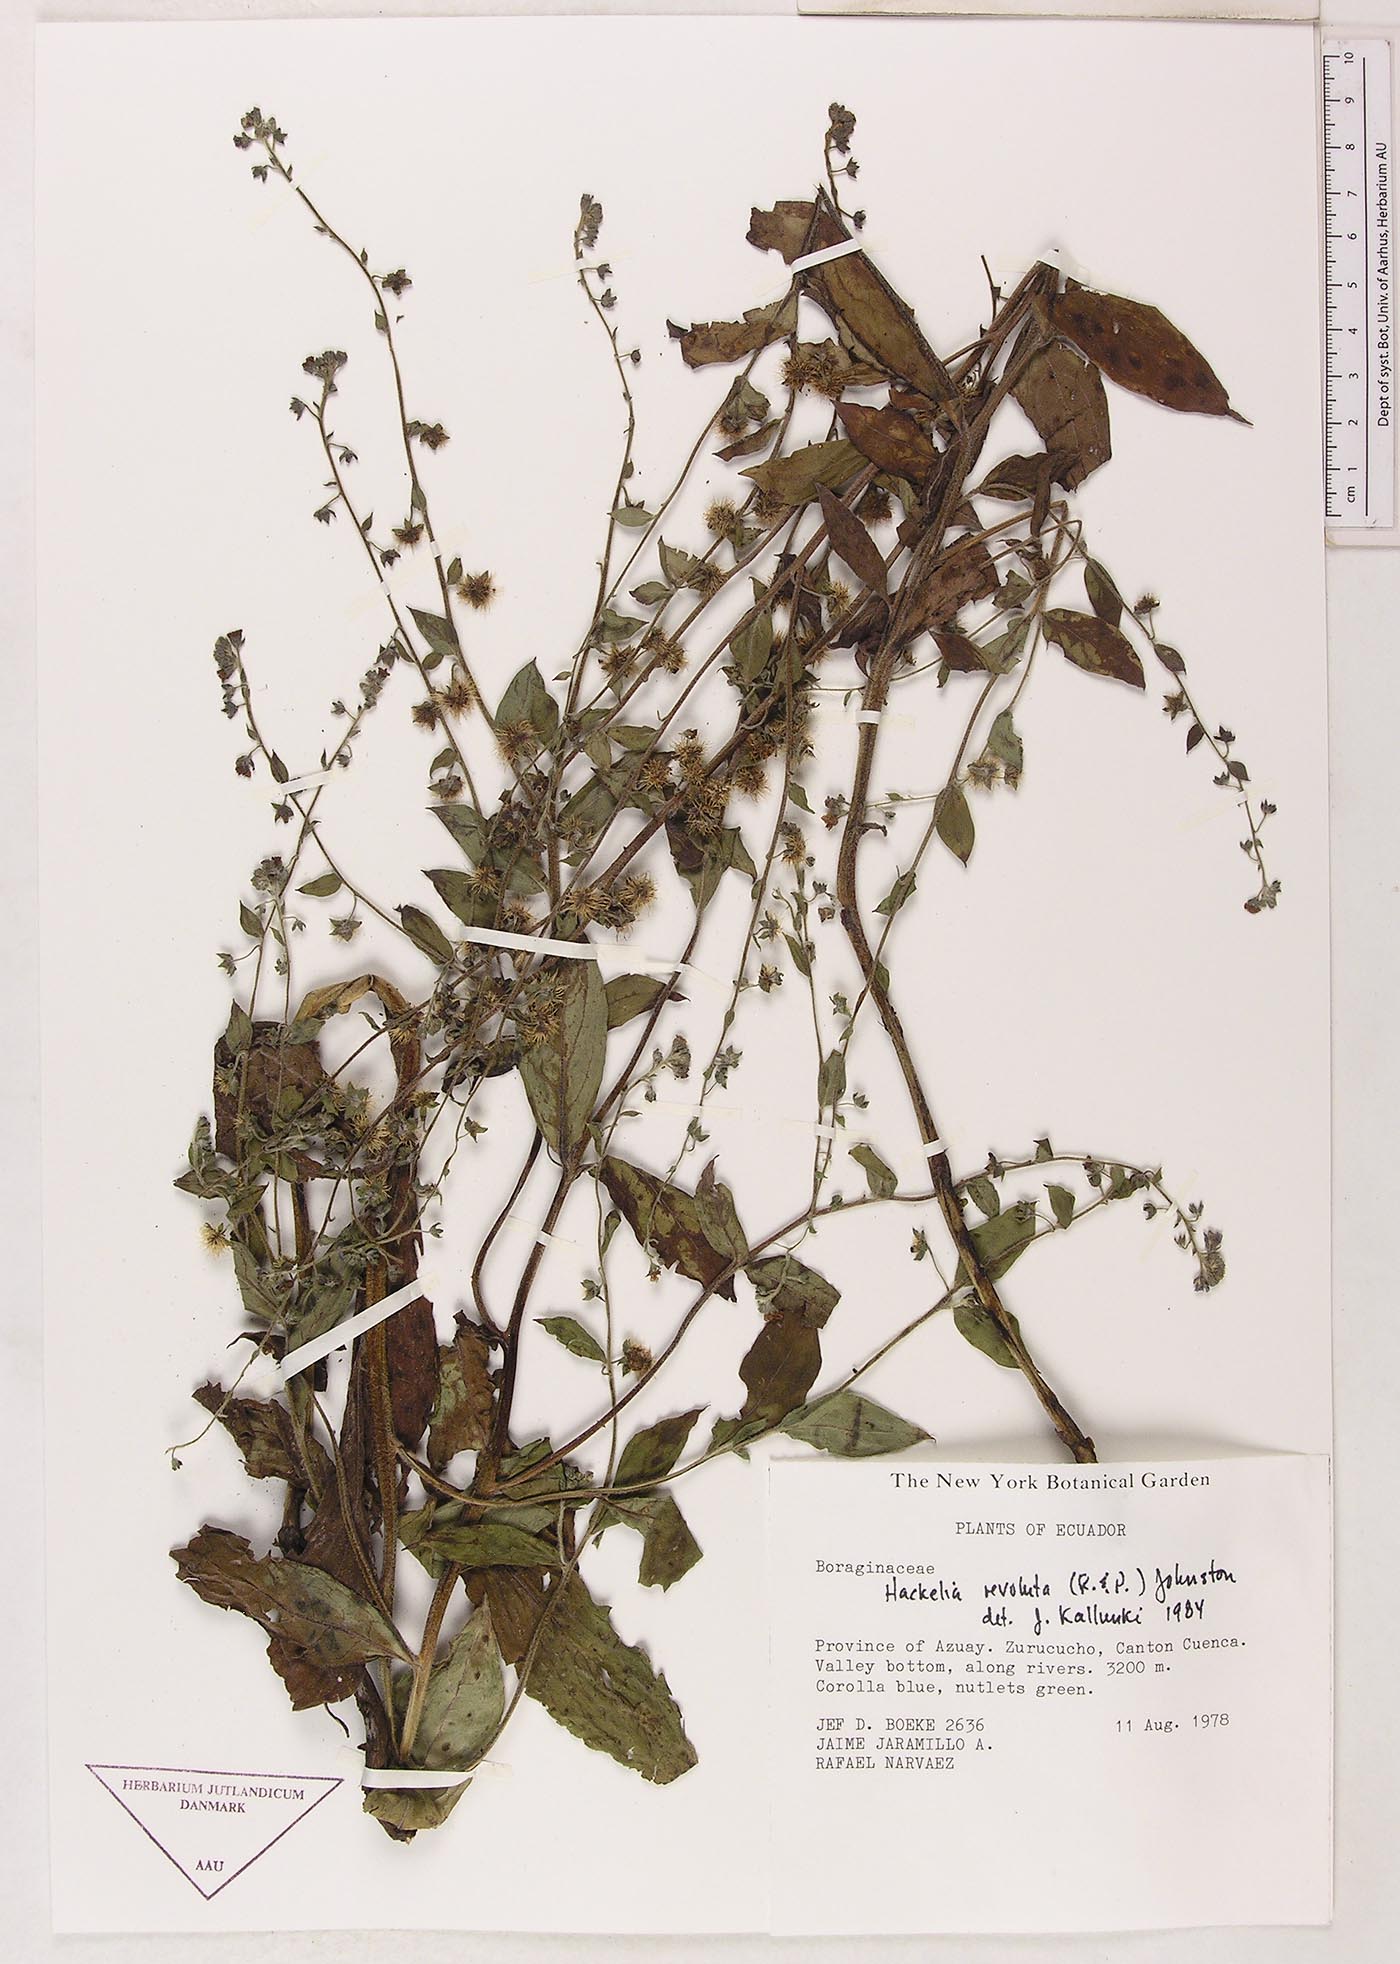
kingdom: Plantae
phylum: Tracheophyta
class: Magnoliopsida
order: Boraginales
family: Boraginaceae
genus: Hackelia
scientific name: Hackelia revoluta
